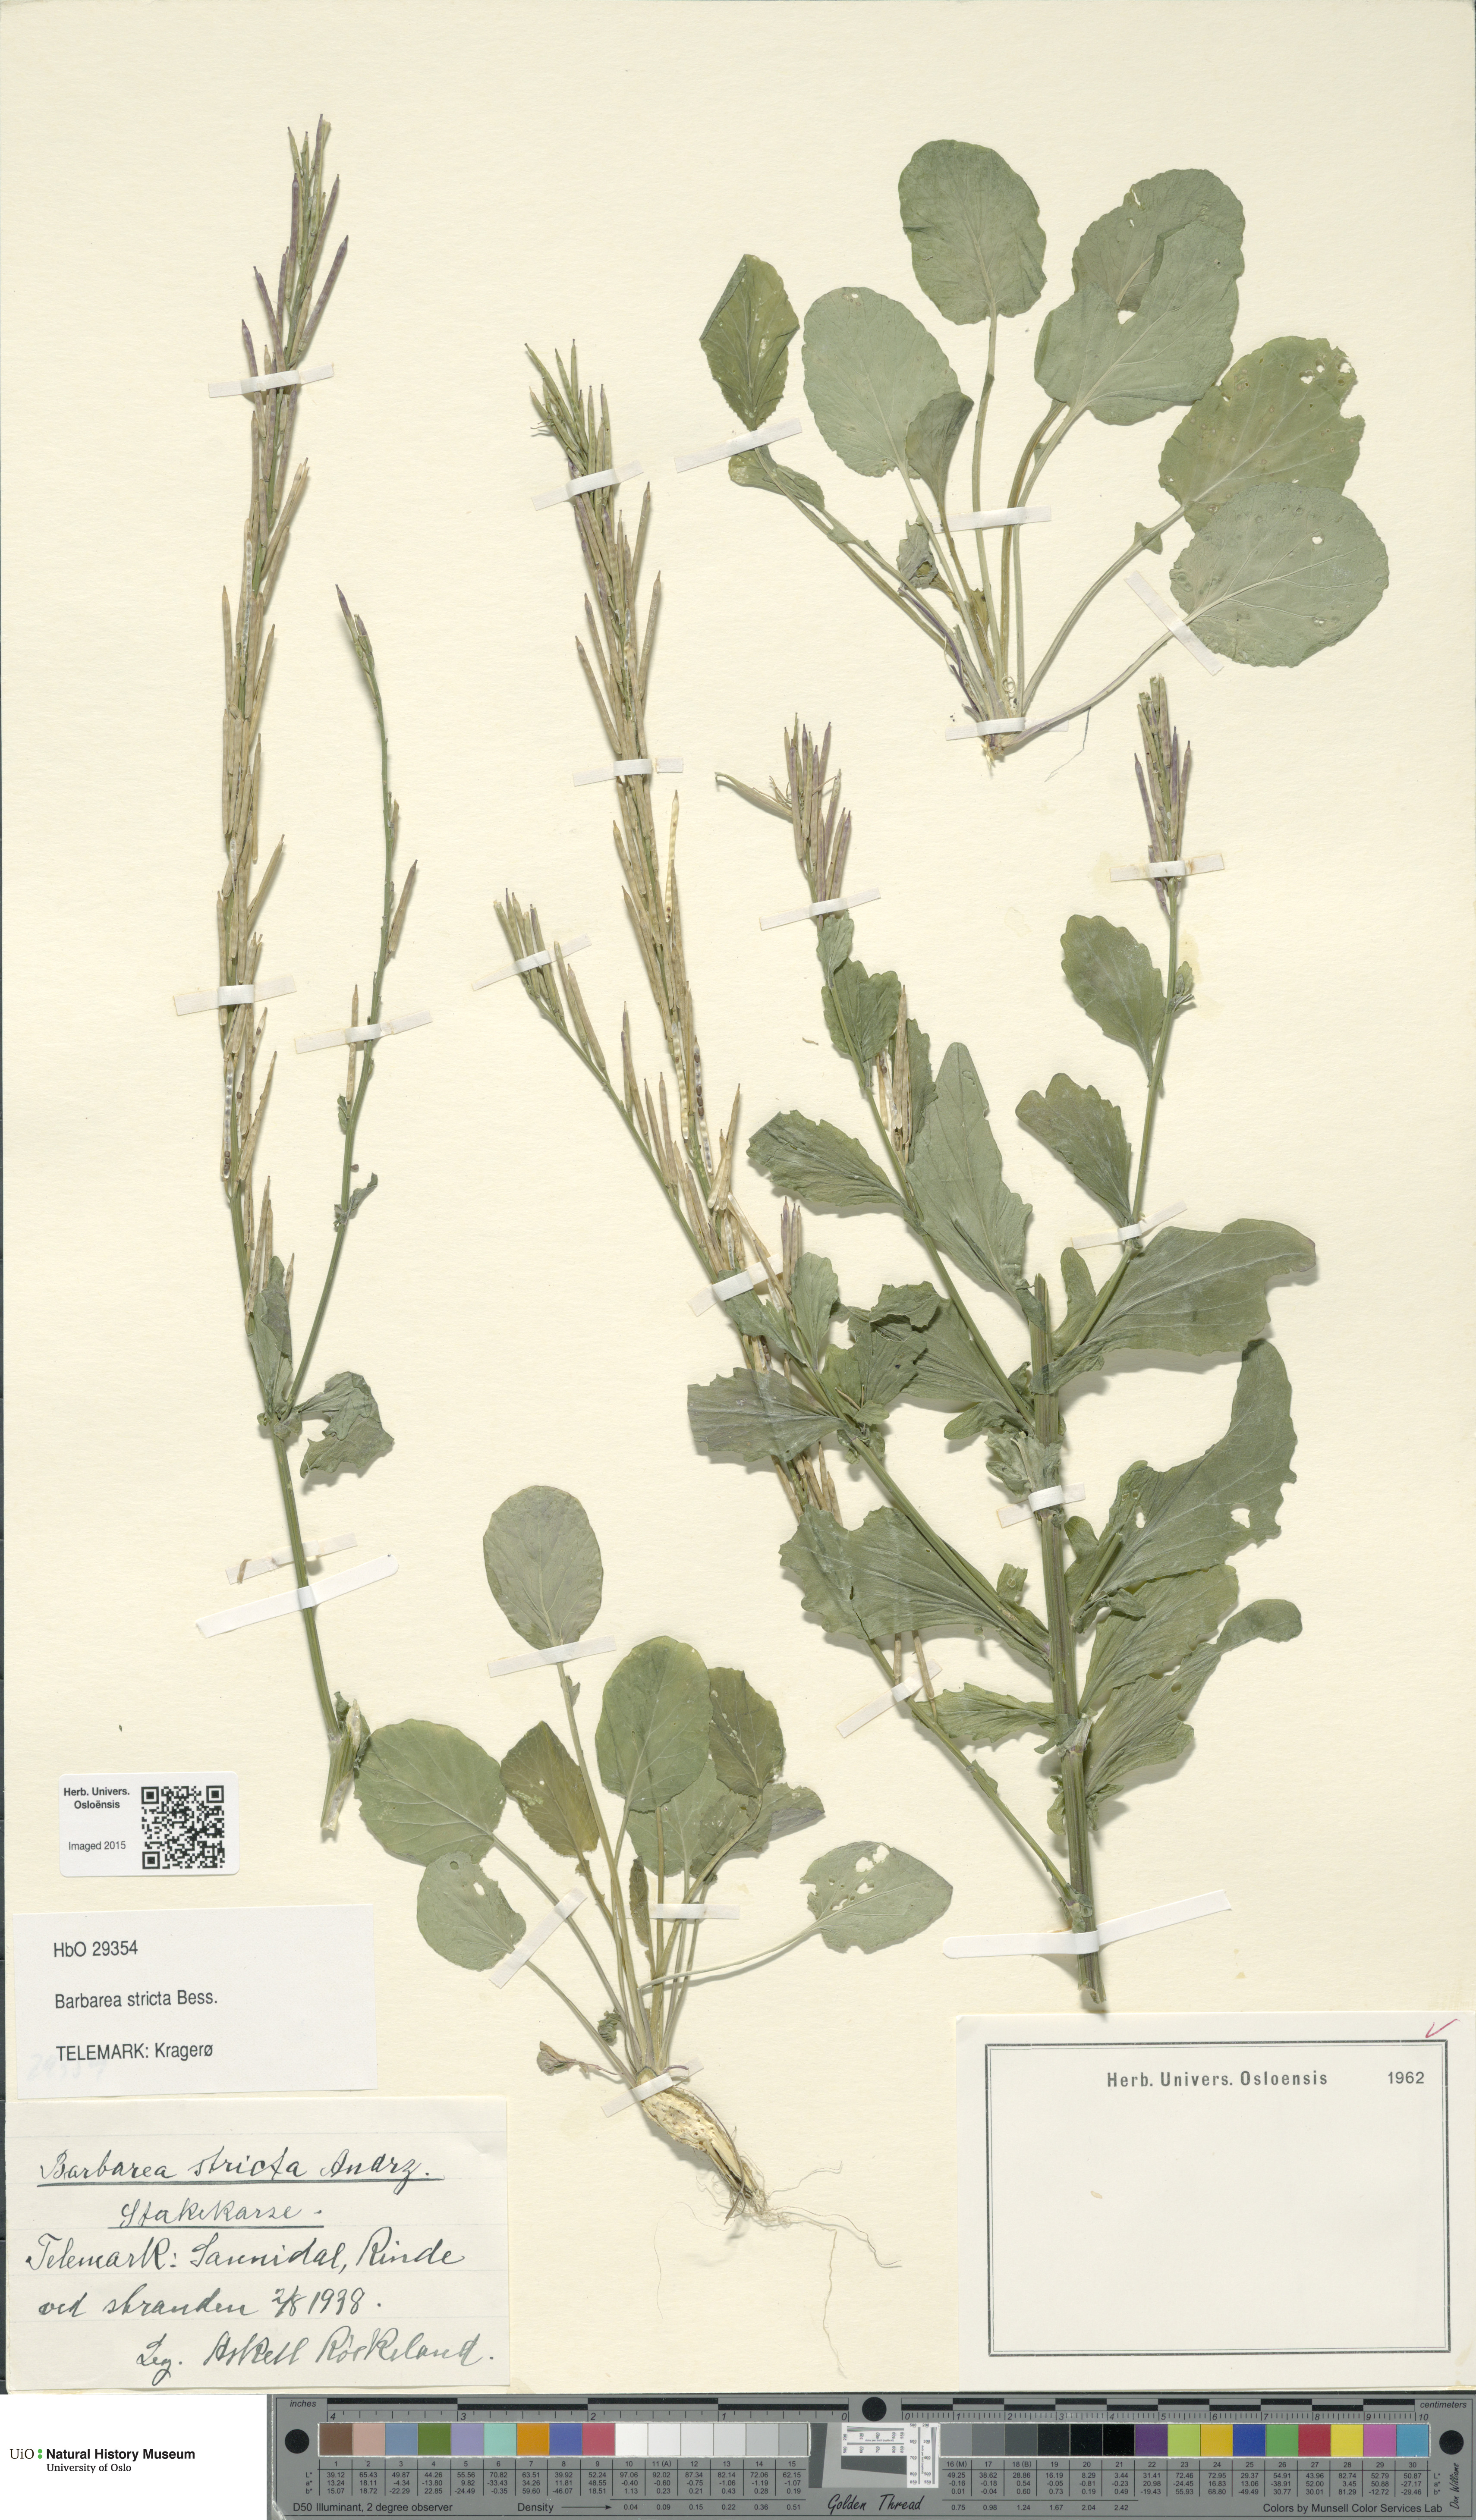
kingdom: Plantae
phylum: Tracheophyta
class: Magnoliopsida
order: Brassicales
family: Brassicaceae
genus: Barbarea
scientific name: Barbarea stricta
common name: Small-flowered winter-cress
